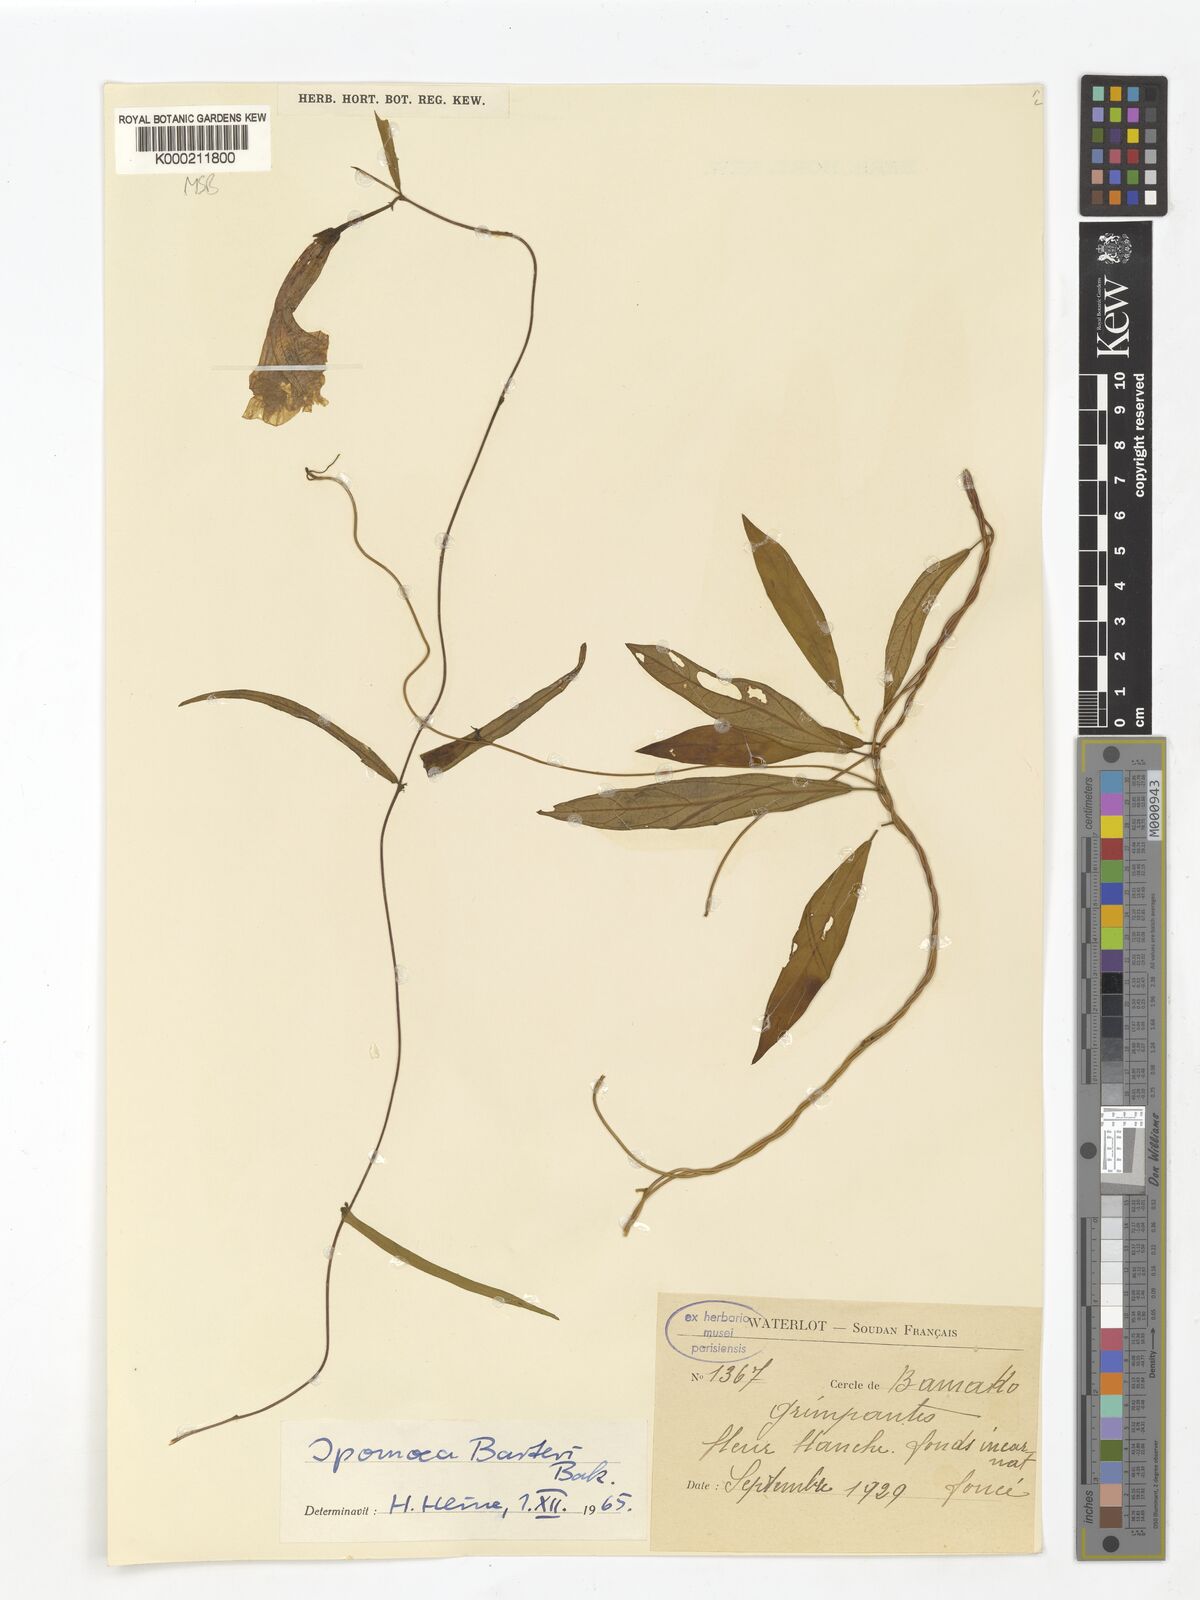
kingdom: Plantae
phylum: Tracheophyta
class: Magnoliopsida
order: Solanales
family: Convolvulaceae
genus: Ipomoea
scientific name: Ipomoea barteri
